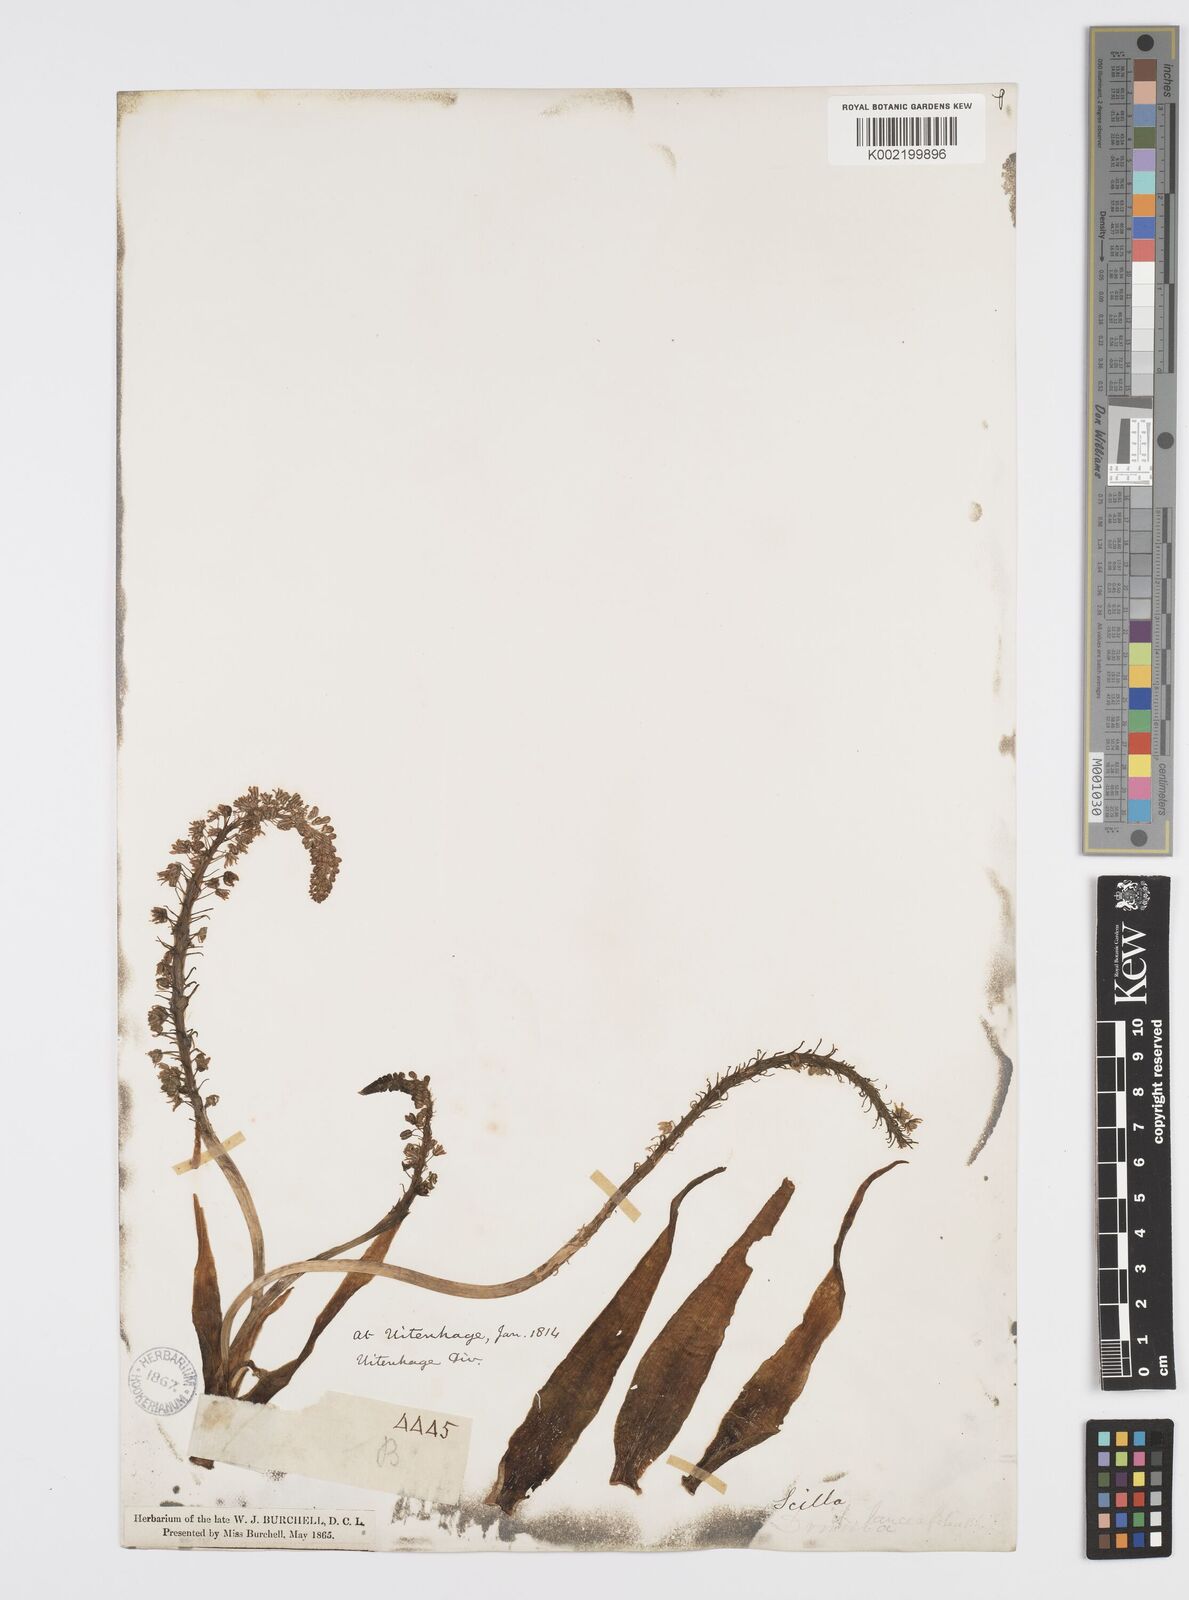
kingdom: Plantae
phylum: Tracheophyta
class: Liliopsida
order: Asparagales
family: Asparagaceae
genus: Ledebouria
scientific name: Ledebouria revoluta
